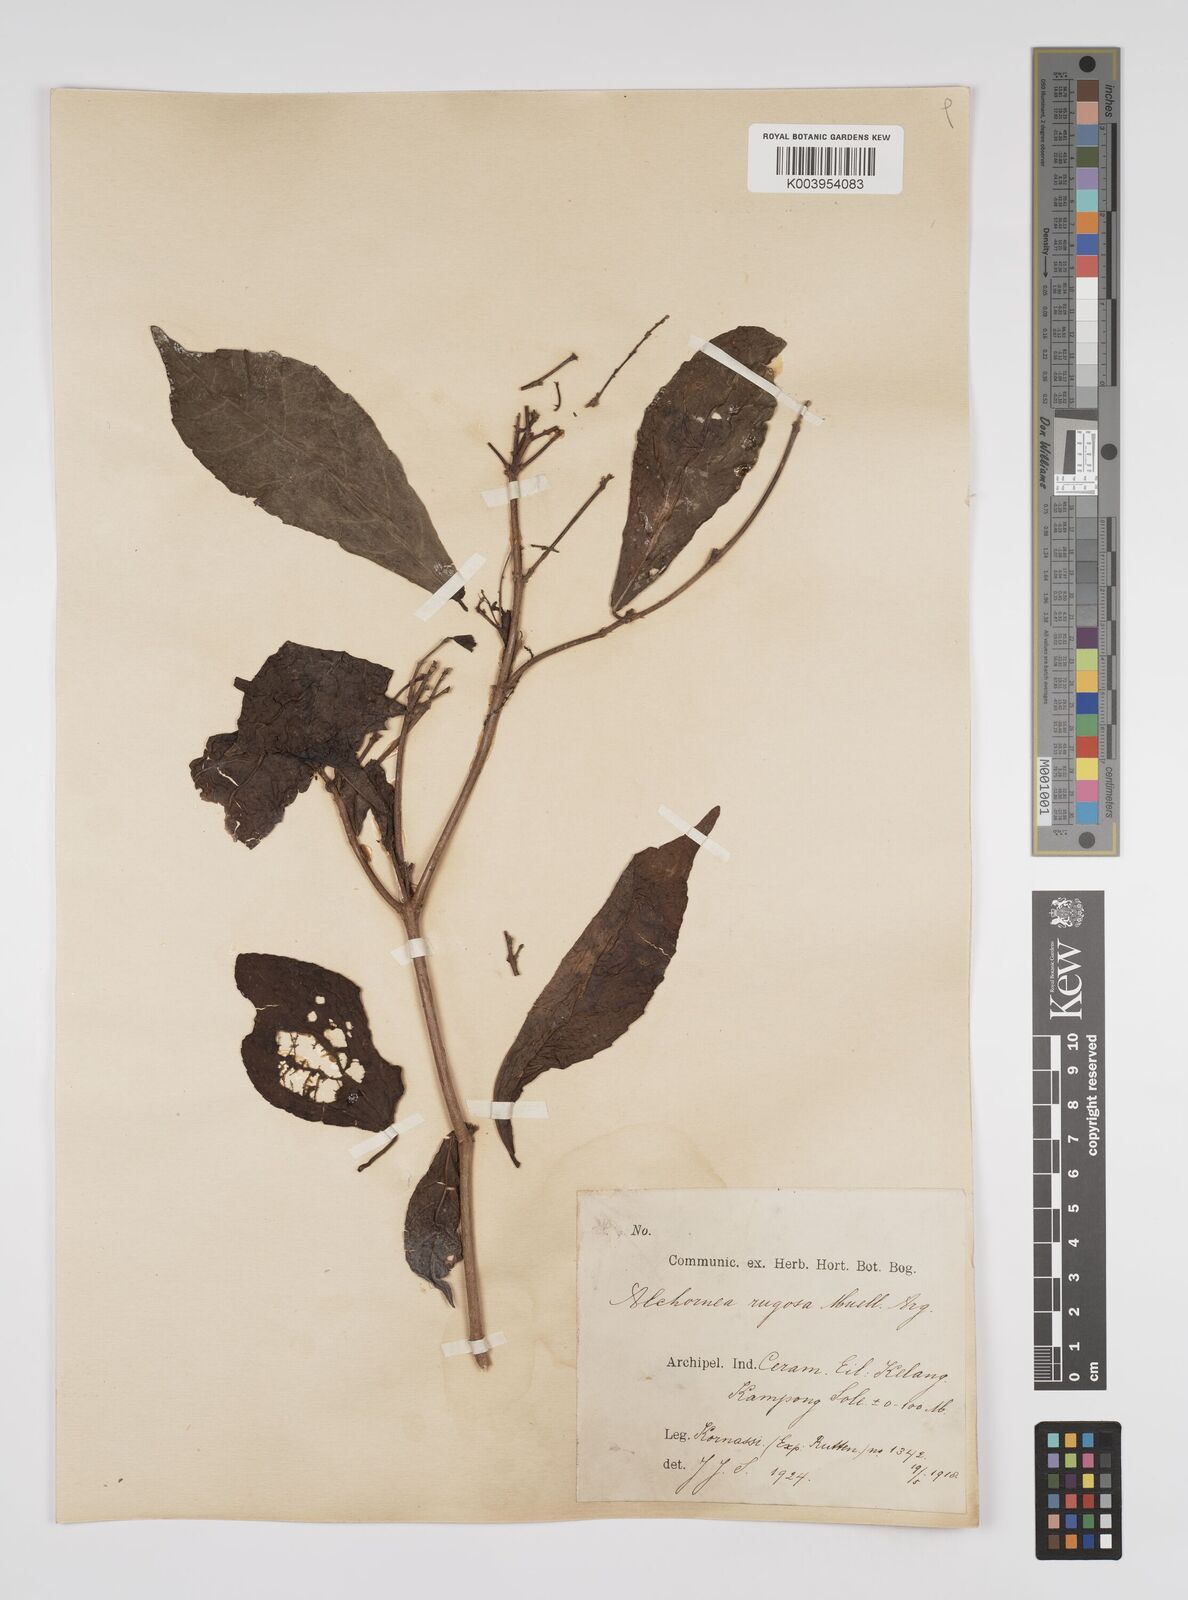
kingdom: Plantae
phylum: Tracheophyta
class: Magnoliopsida
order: Malpighiales
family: Euphorbiaceae
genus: Alchornea
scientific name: Alchornea rugosa
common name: Alchorntree
